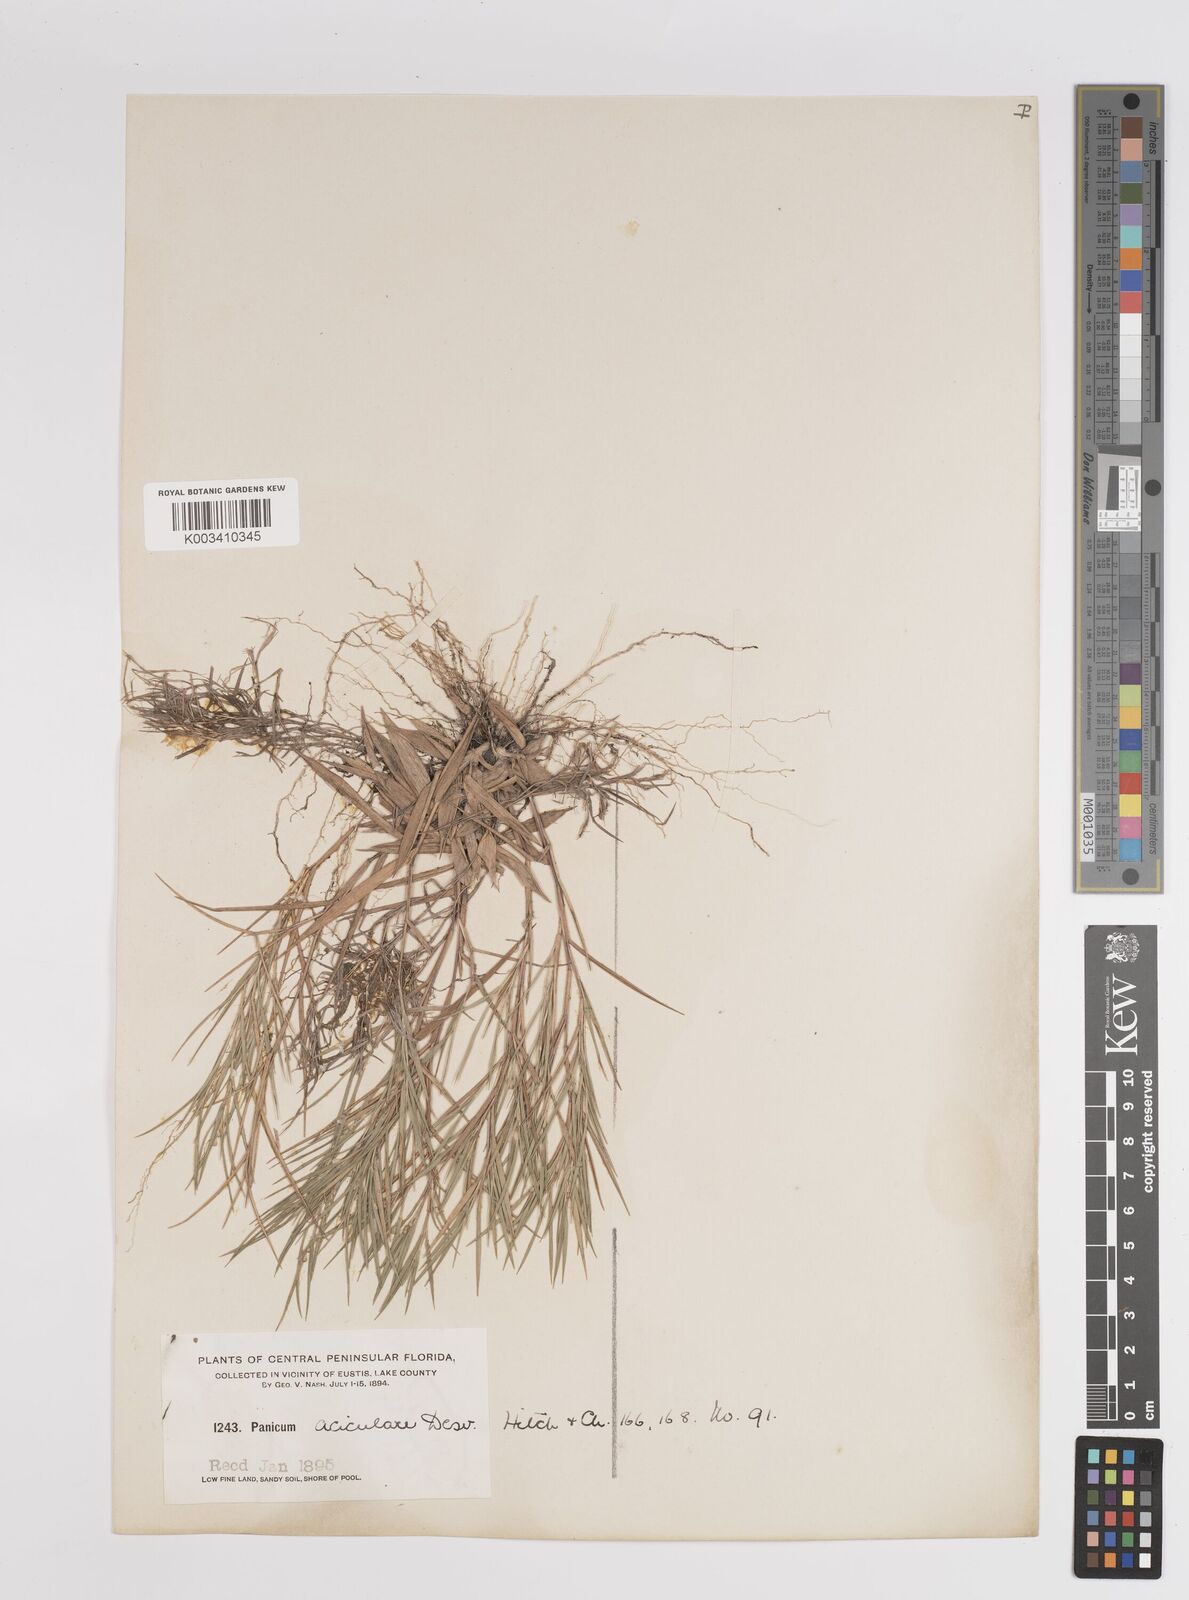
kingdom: Plantae
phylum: Tracheophyta
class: Liliopsida
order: Poales
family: Poaceae
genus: Dichanthelium
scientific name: Dichanthelium angustifolium
